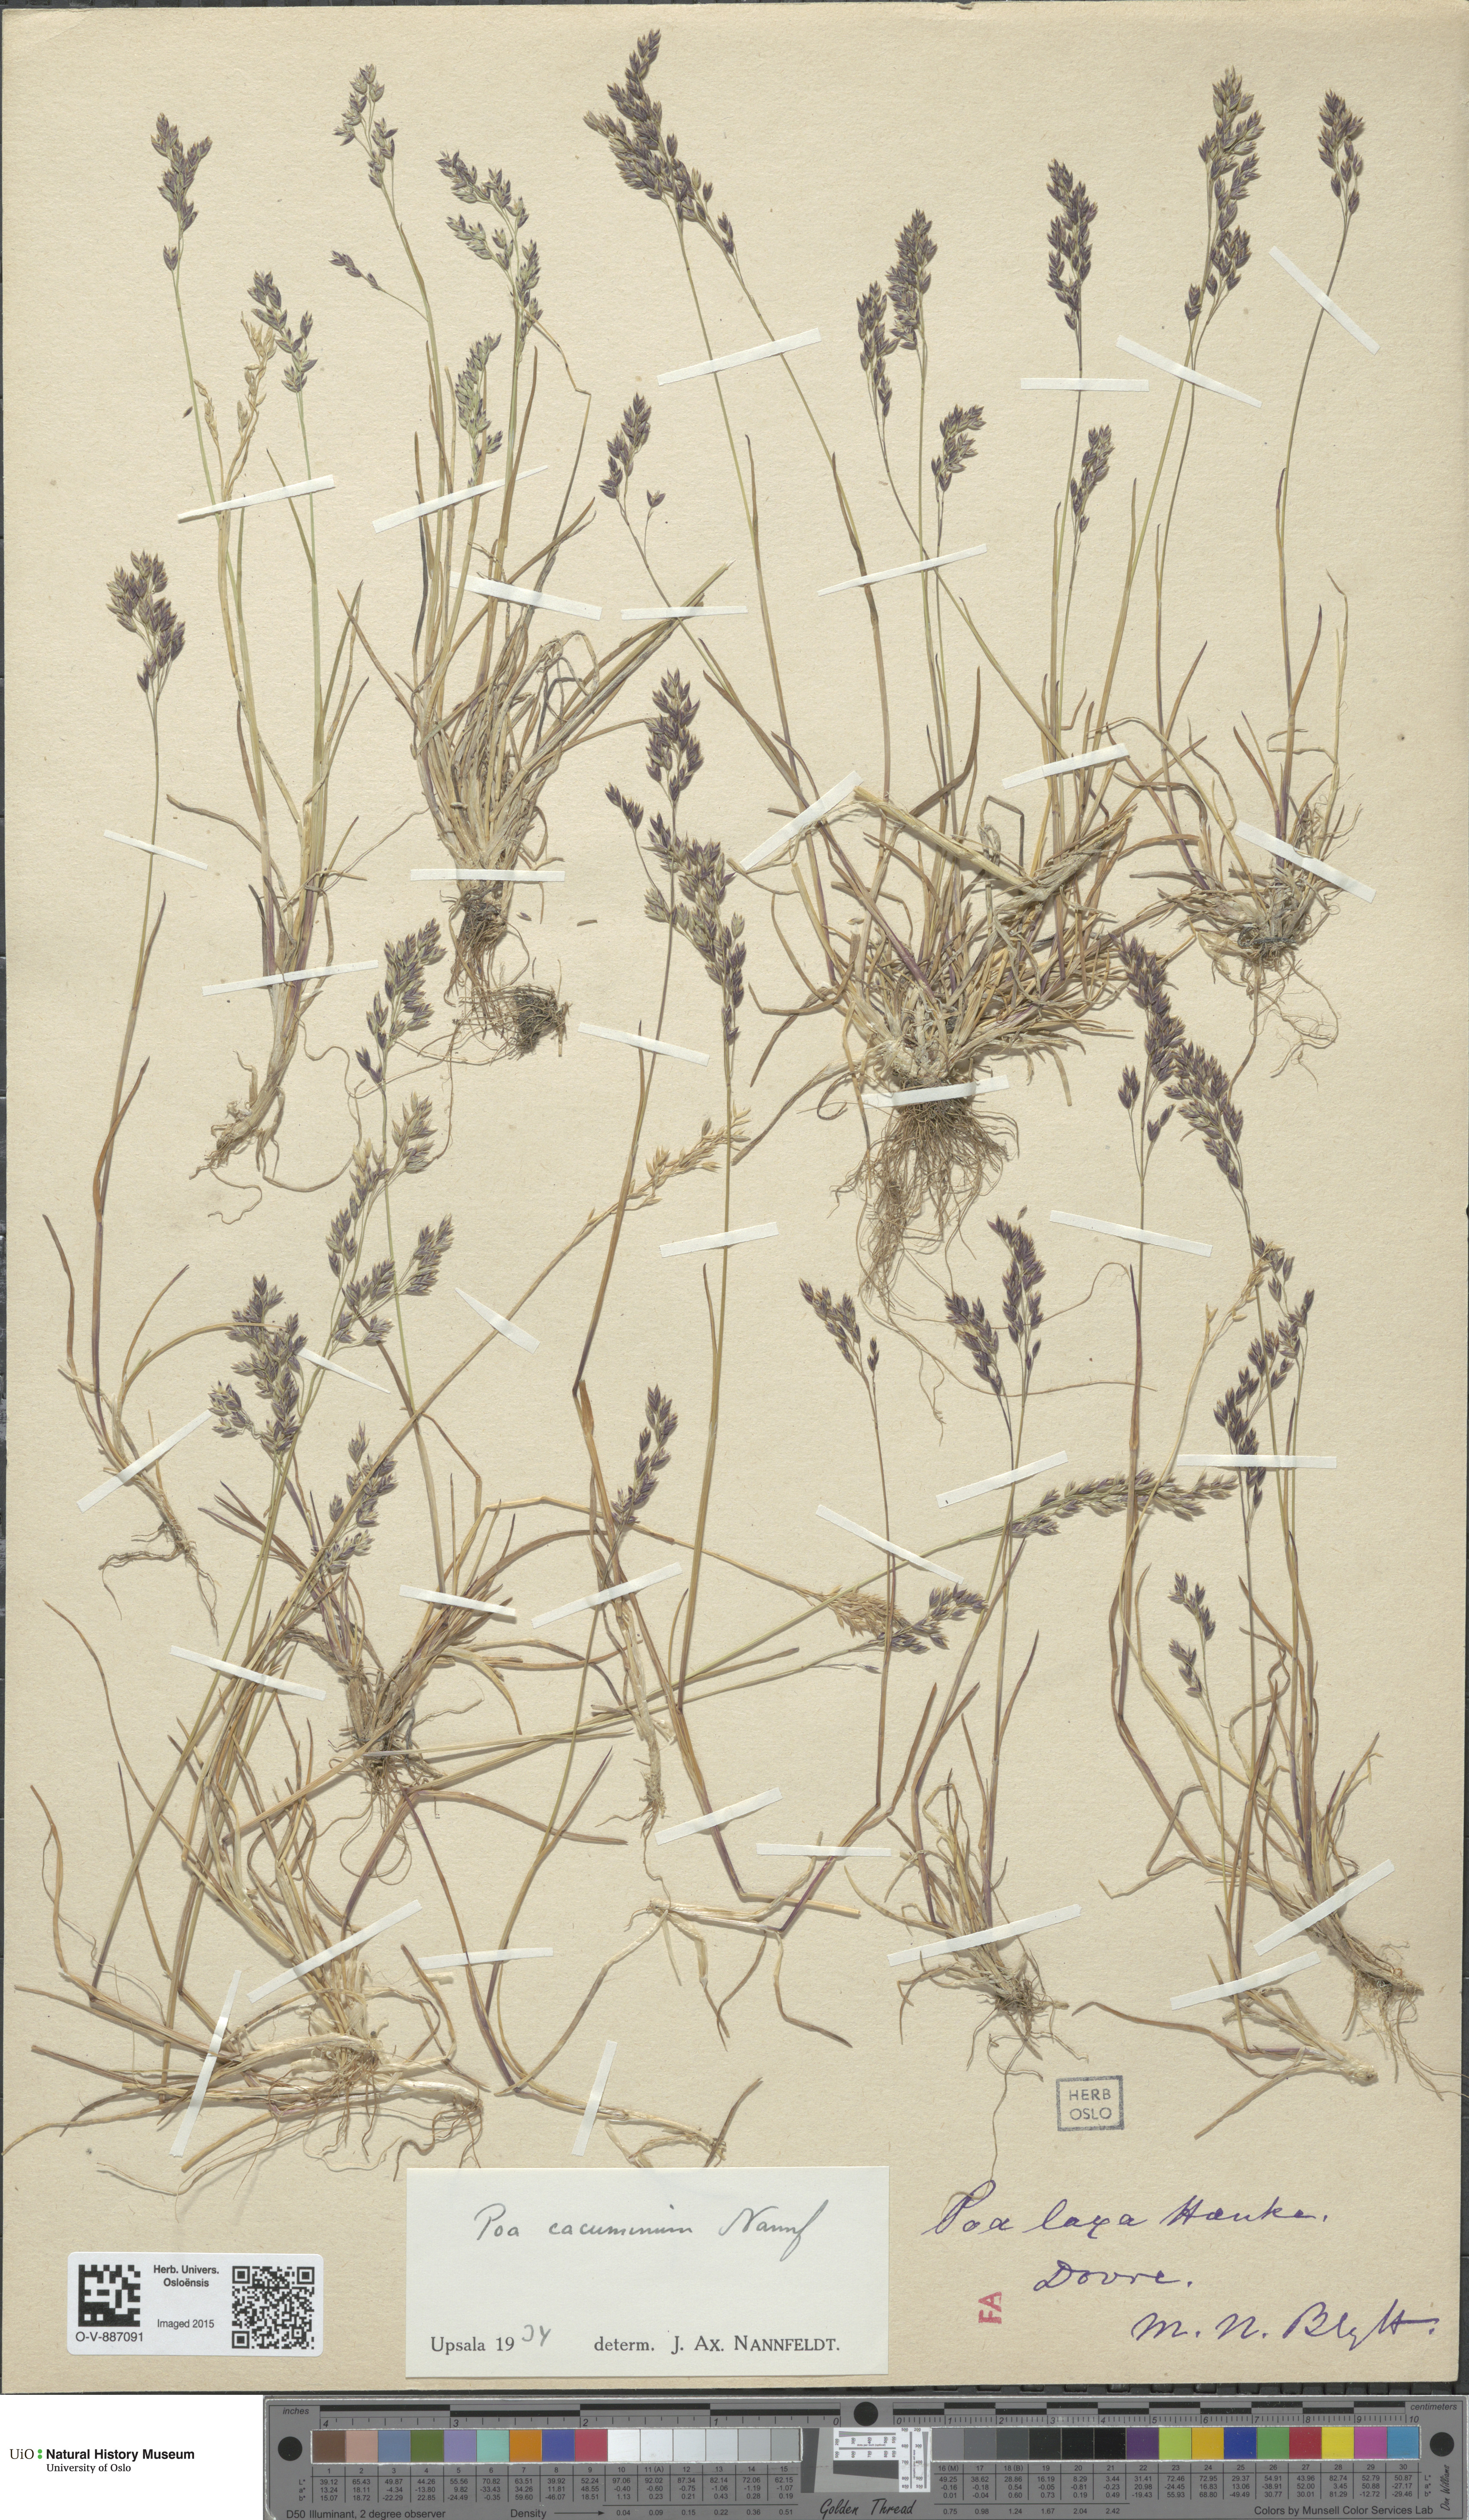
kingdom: Plantae
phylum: Tracheophyta
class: Liliopsida
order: Poales
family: Poaceae
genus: Poa
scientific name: Poa flexuosa
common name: Wavy meadow-grass
